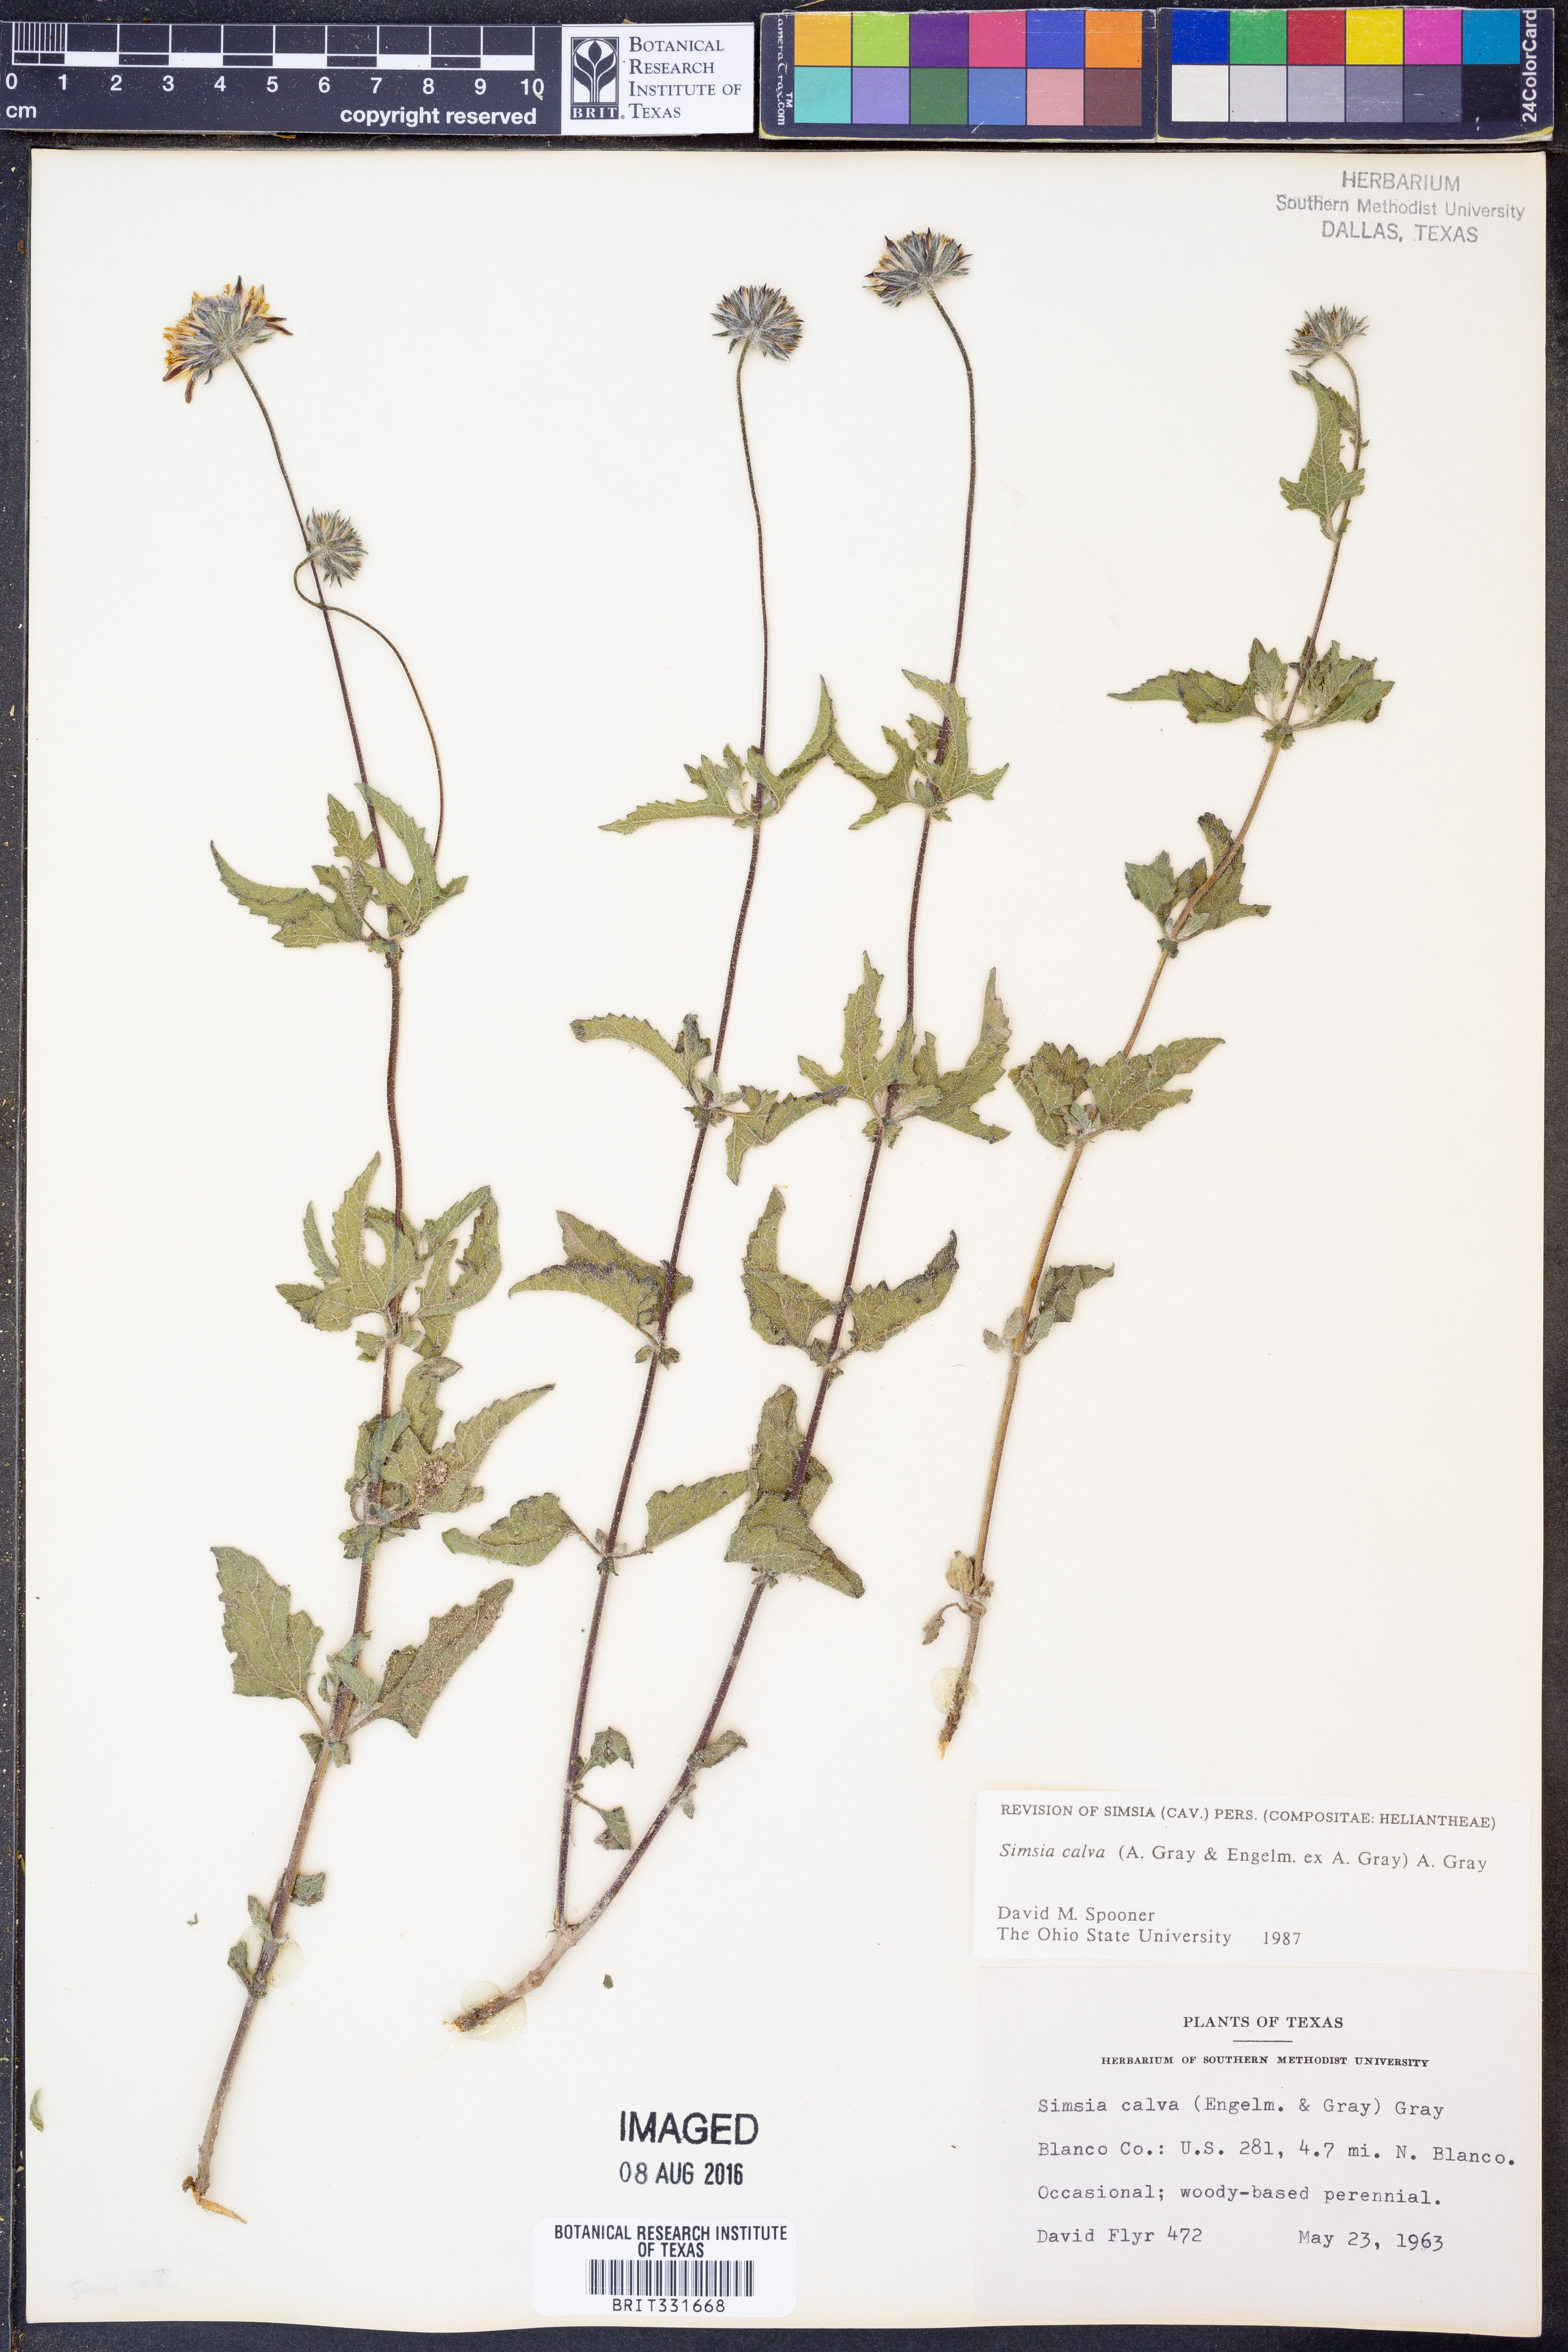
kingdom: Plantae
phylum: Tracheophyta
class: Magnoliopsida
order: Asterales
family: Asteraceae
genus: Simsia
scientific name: Simsia calva
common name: Awnless bush-sunflower
